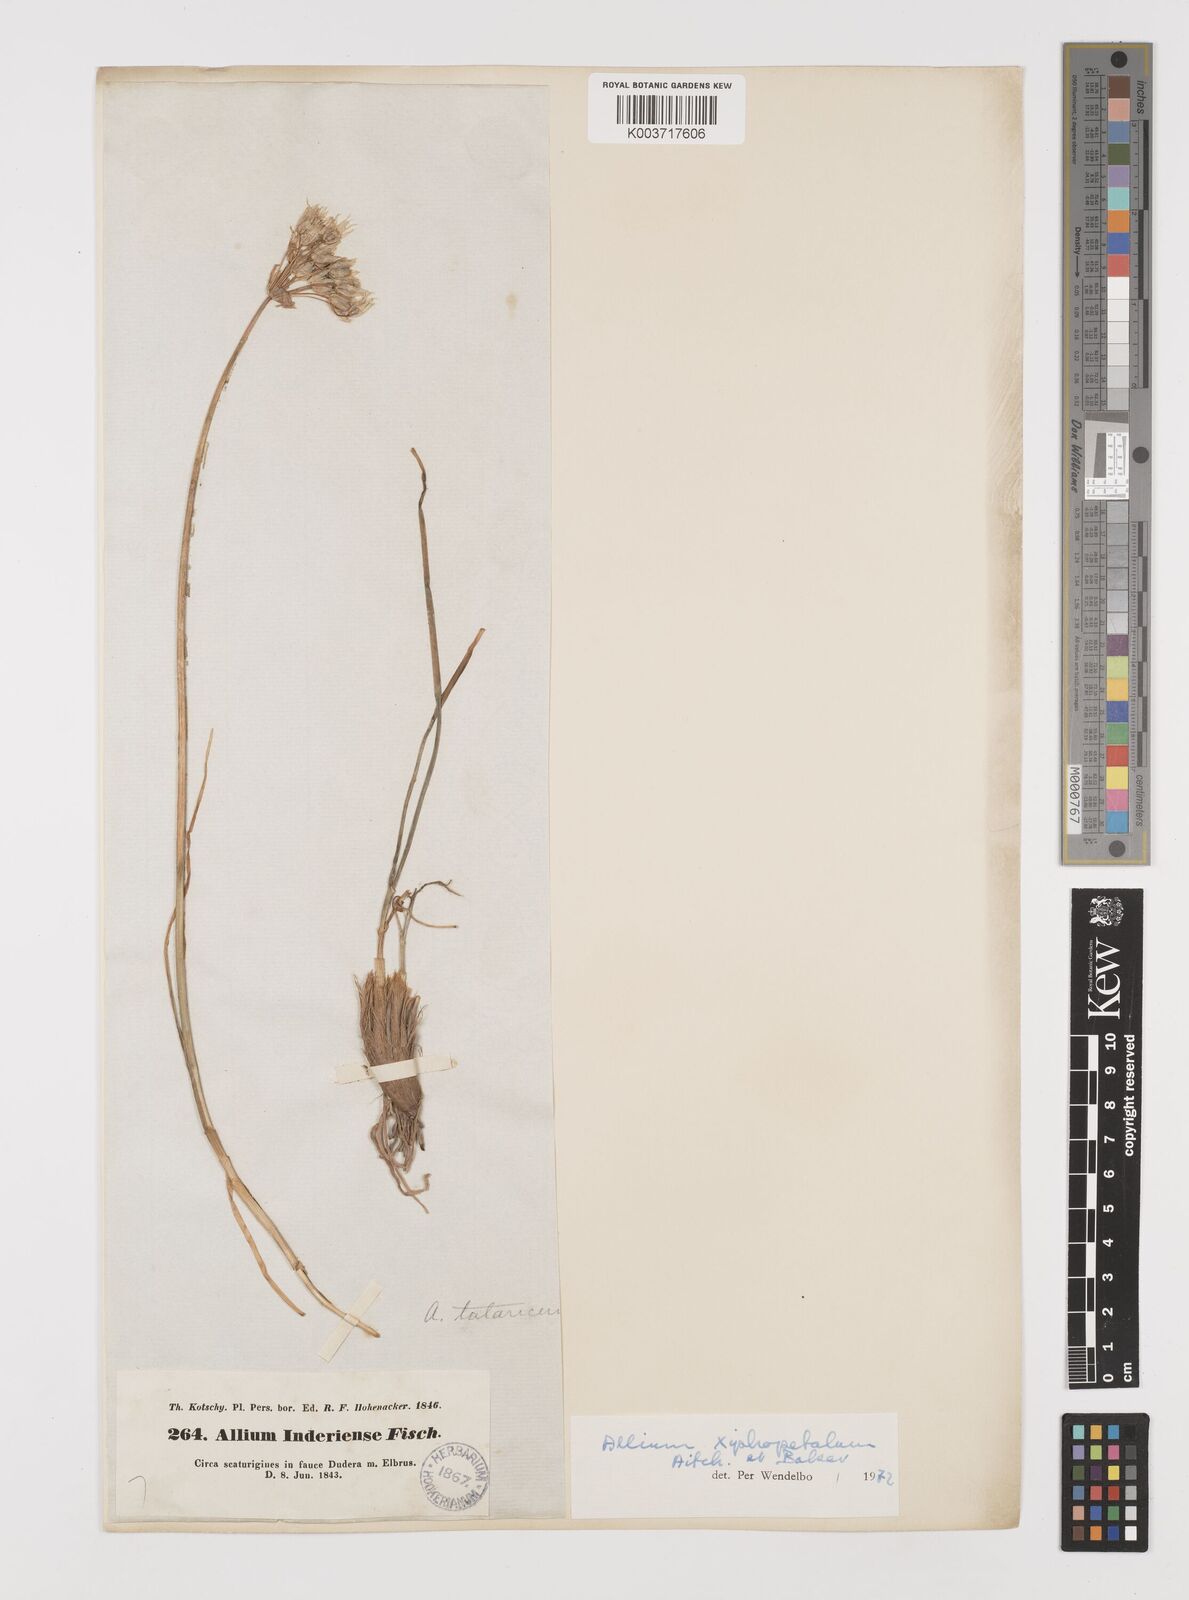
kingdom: Plantae
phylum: Tracheophyta
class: Liliopsida
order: Asparagales
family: Amaryllidaceae
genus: Allium
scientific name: Allium xiphopetalum
